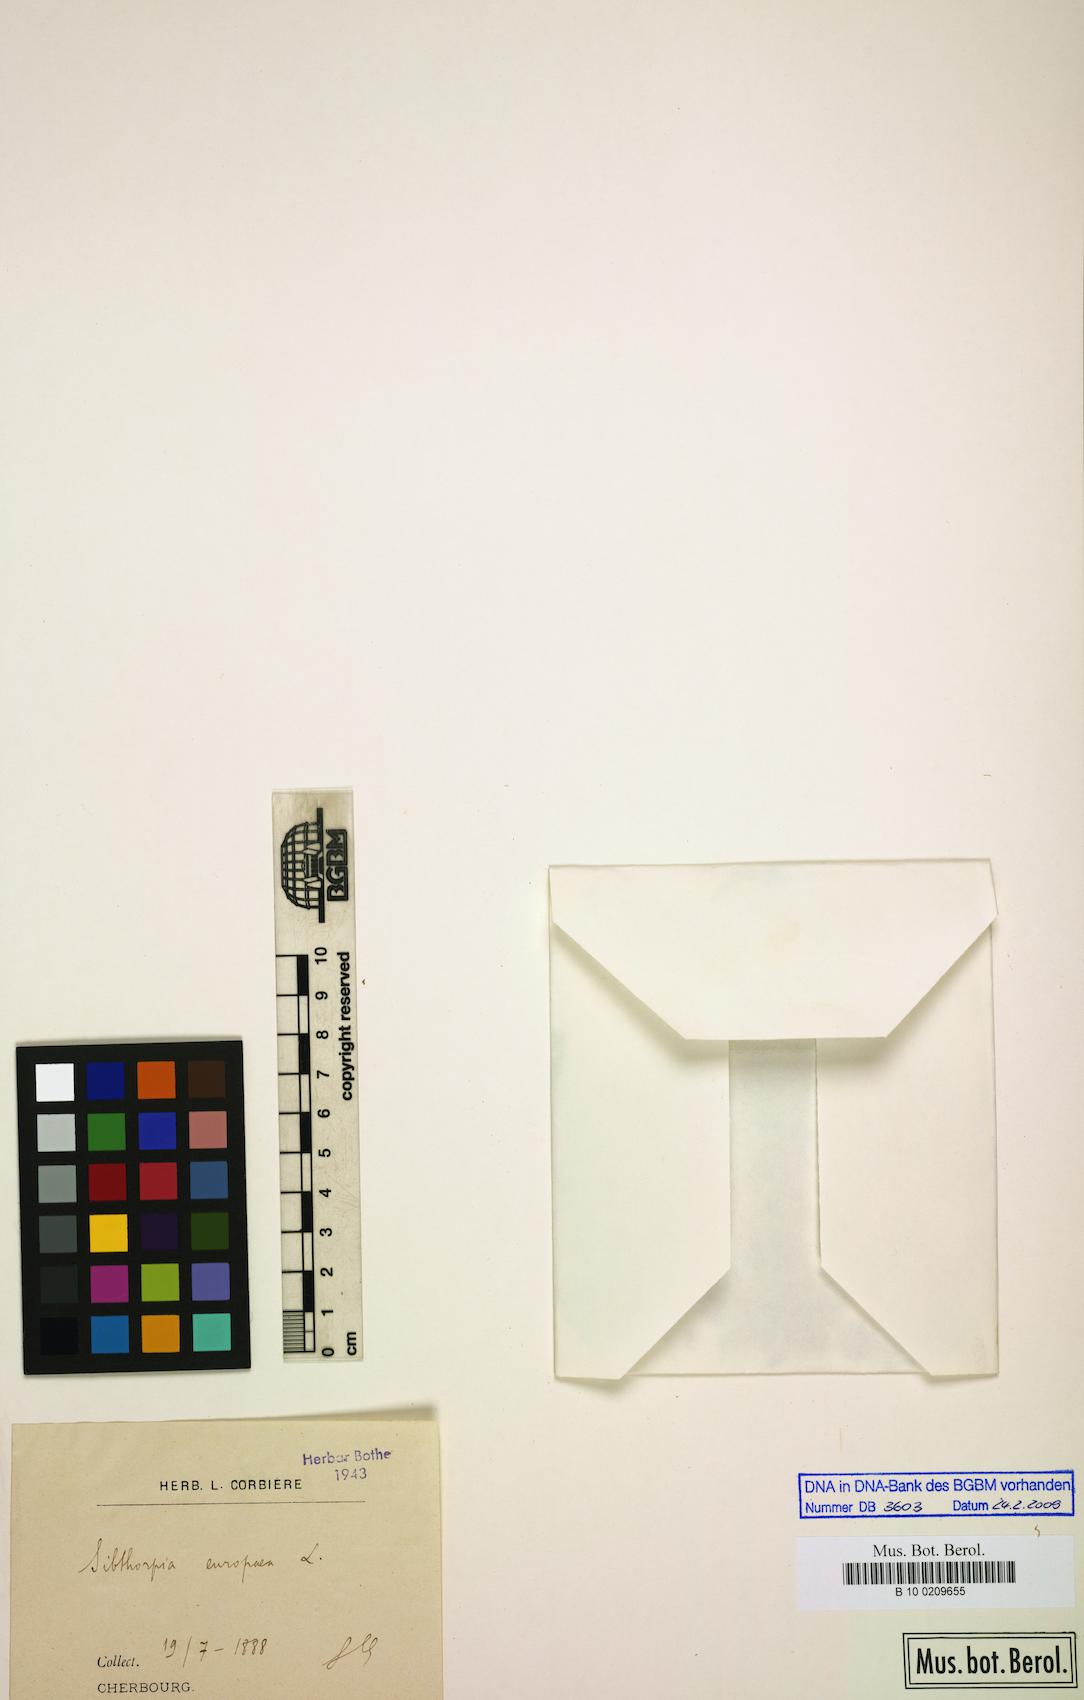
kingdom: Plantae
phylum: Tracheophyta
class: Magnoliopsida
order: Lamiales
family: Plantaginaceae
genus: Sibthorpia
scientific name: Sibthorpia europaea
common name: Cornish moneywort
